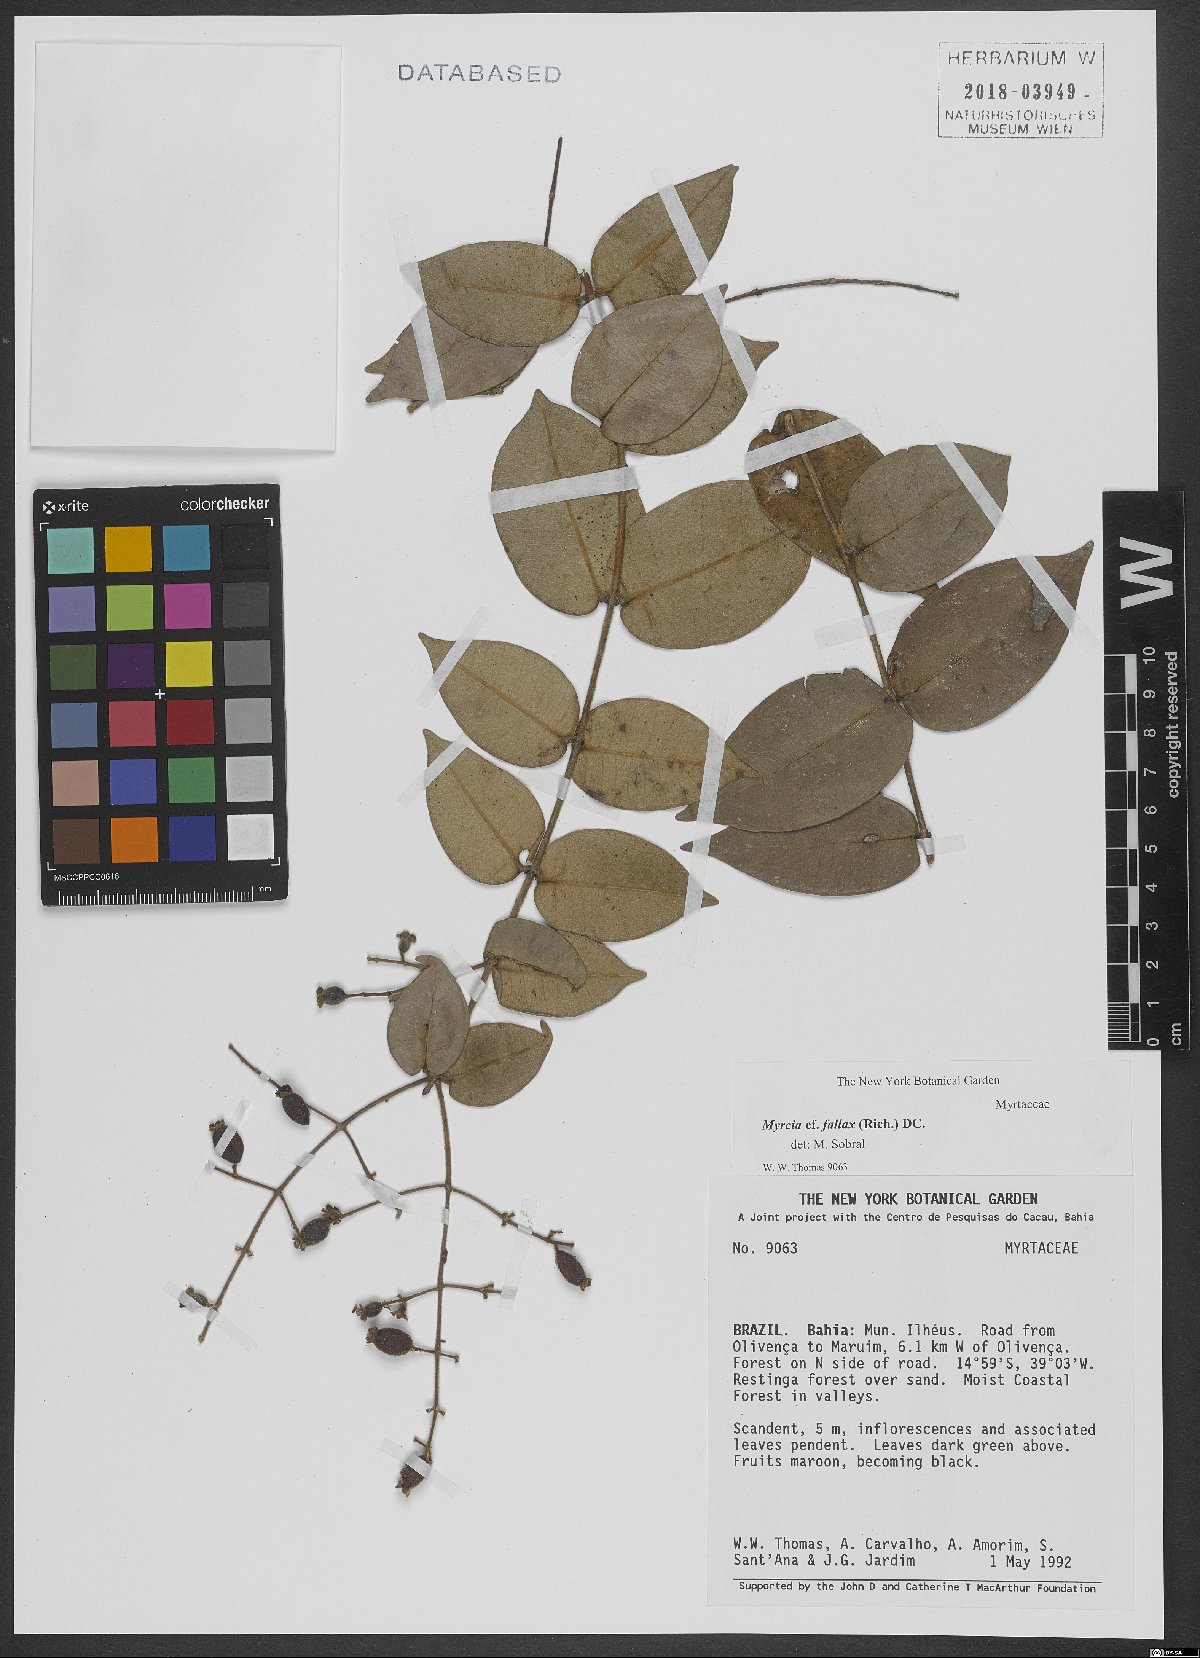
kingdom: Plantae
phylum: Tracheophyta
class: Magnoliopsida
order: Myrtales
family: Myrtaceae
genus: Myrcia
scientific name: Myrcia splendens
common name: Surinam cherry
